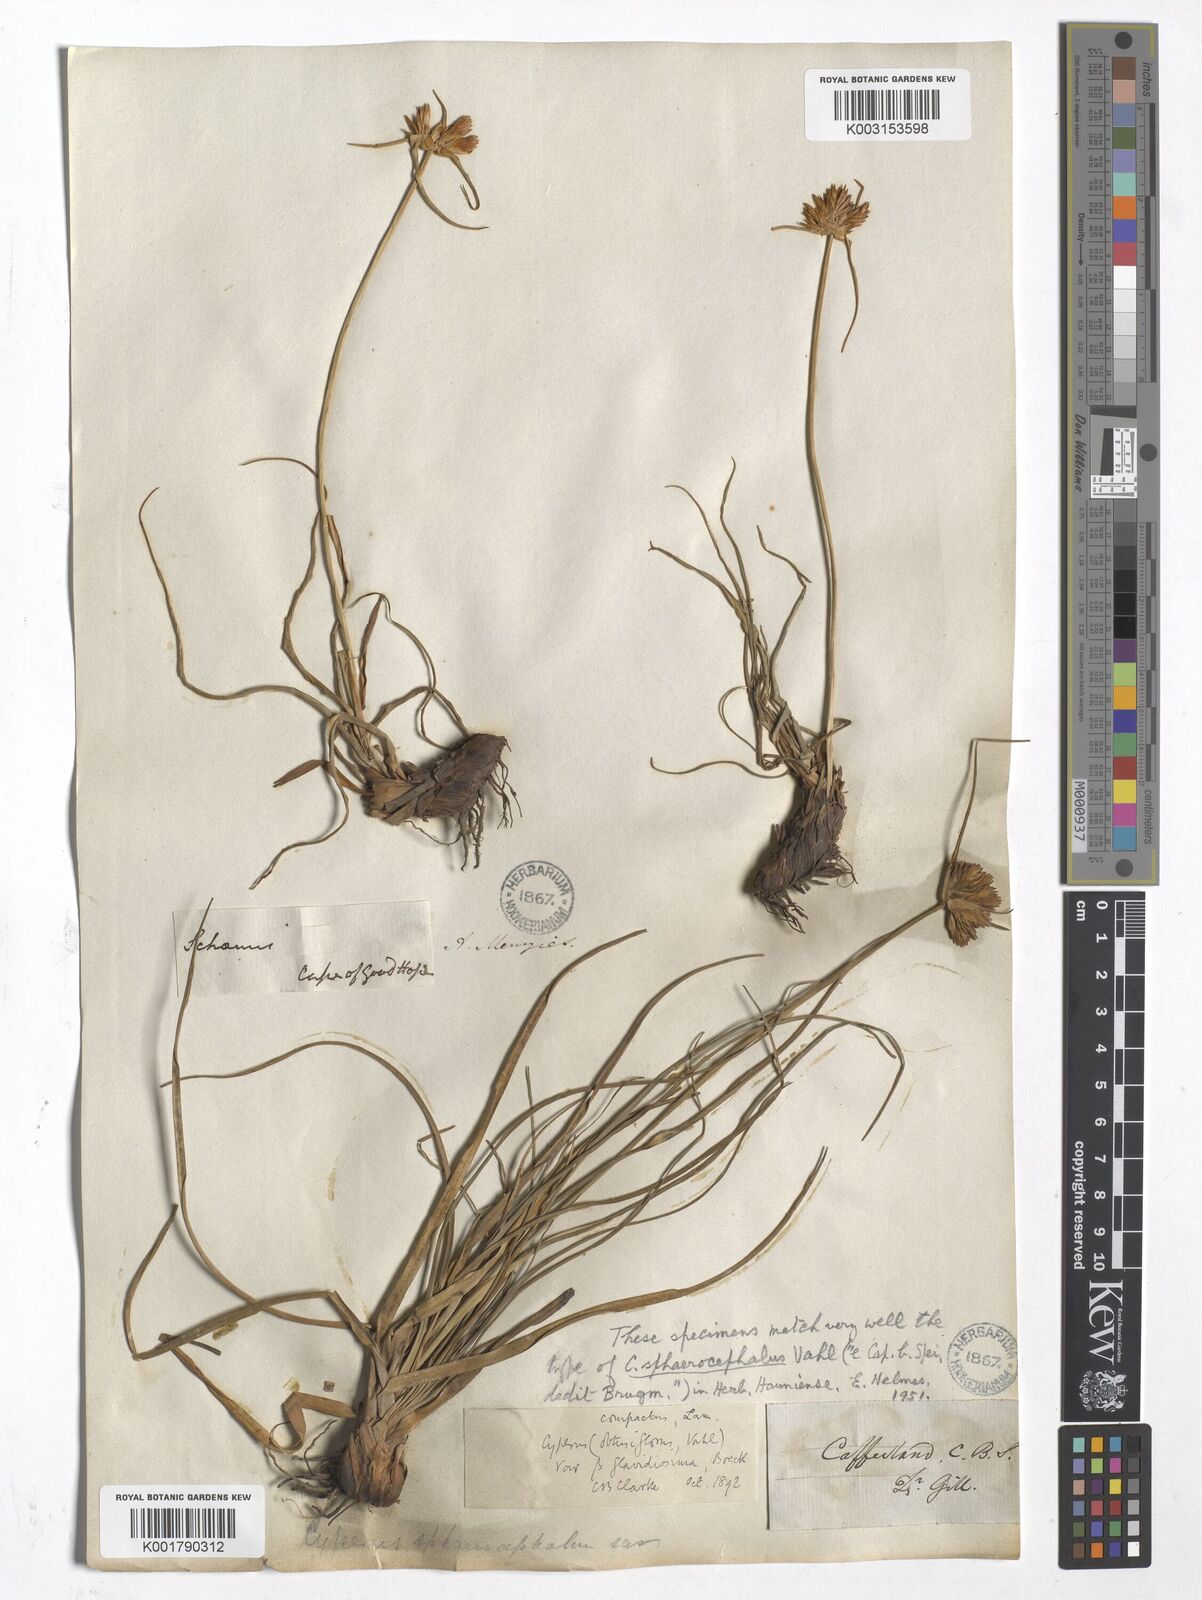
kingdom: Plantae
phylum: Tracheophyta
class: Liliopsida
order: Poales
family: Cyperaceae
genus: Cyperus
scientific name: Cyperus
